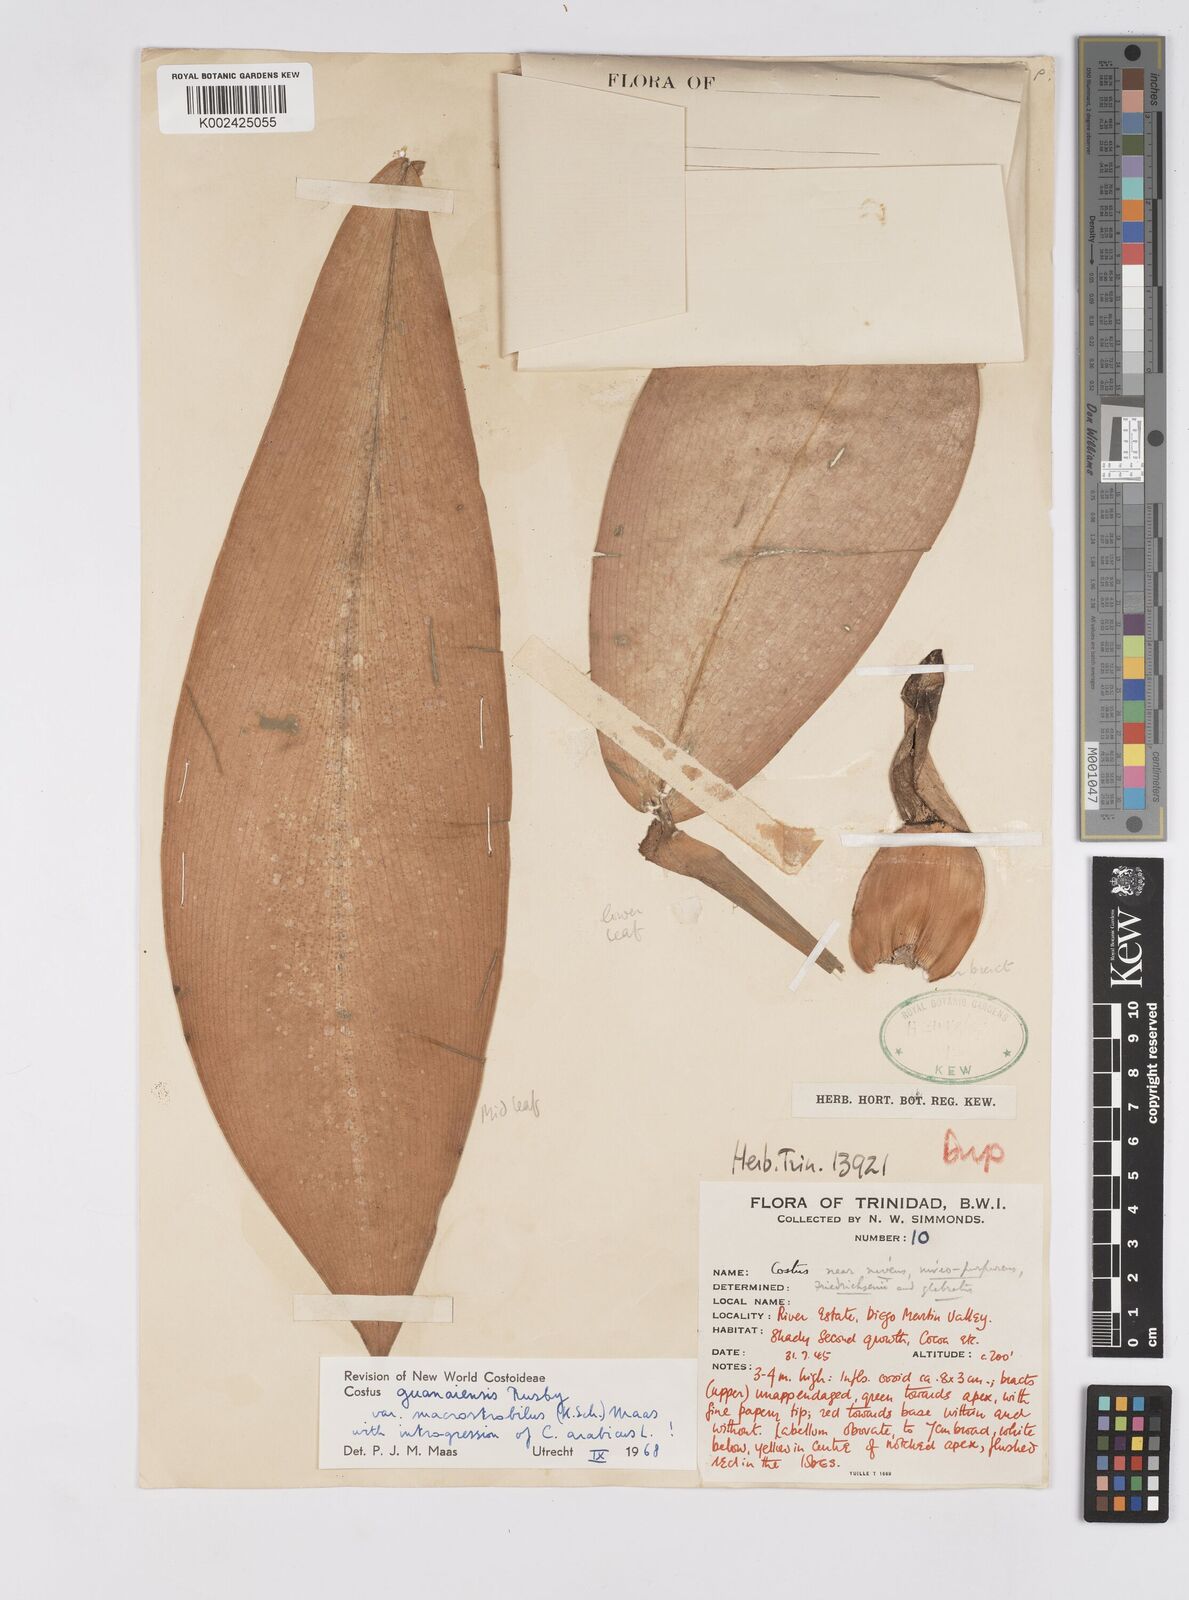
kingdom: Plantae
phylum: Tracheophyta
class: Liliopsida
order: Zingiberales
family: Costaceae
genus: Costus
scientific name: Costus guanaiensis
